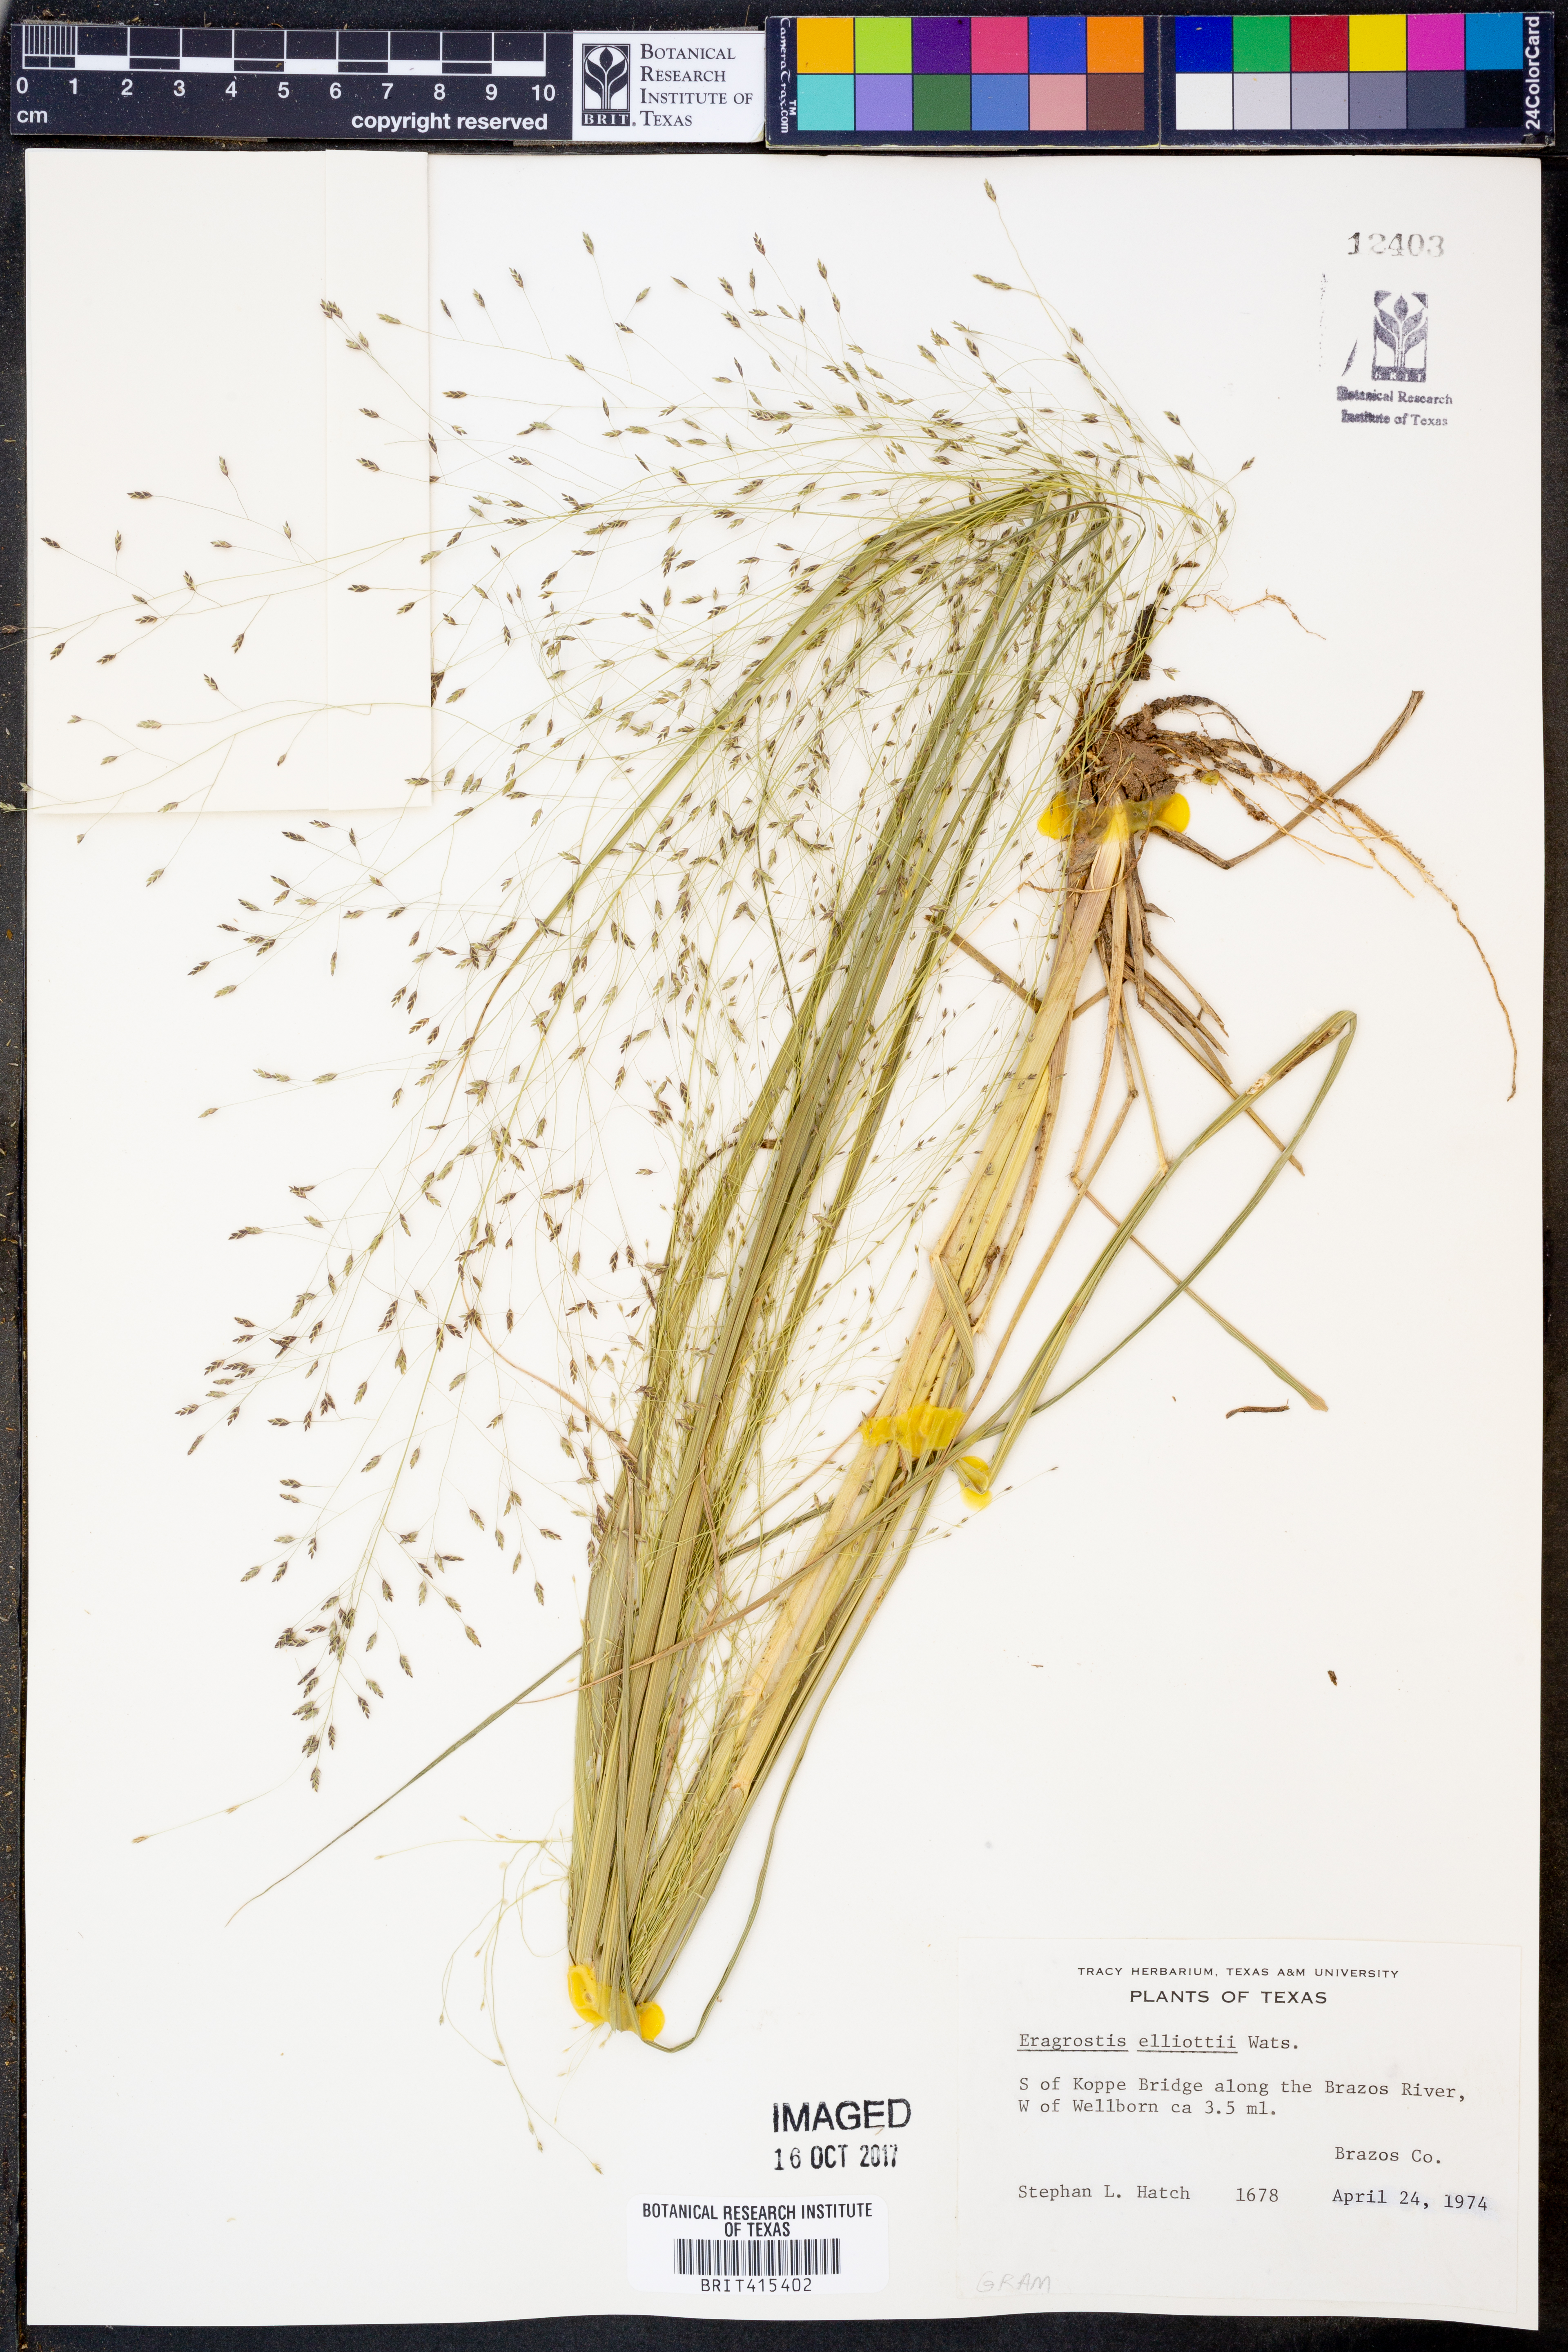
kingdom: Plantae
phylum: Tracheophyta
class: Liliopsida
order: Poales
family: Poaceae
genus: Eragrostis
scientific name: Eragrostis elliottii
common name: Elliott's love grass
